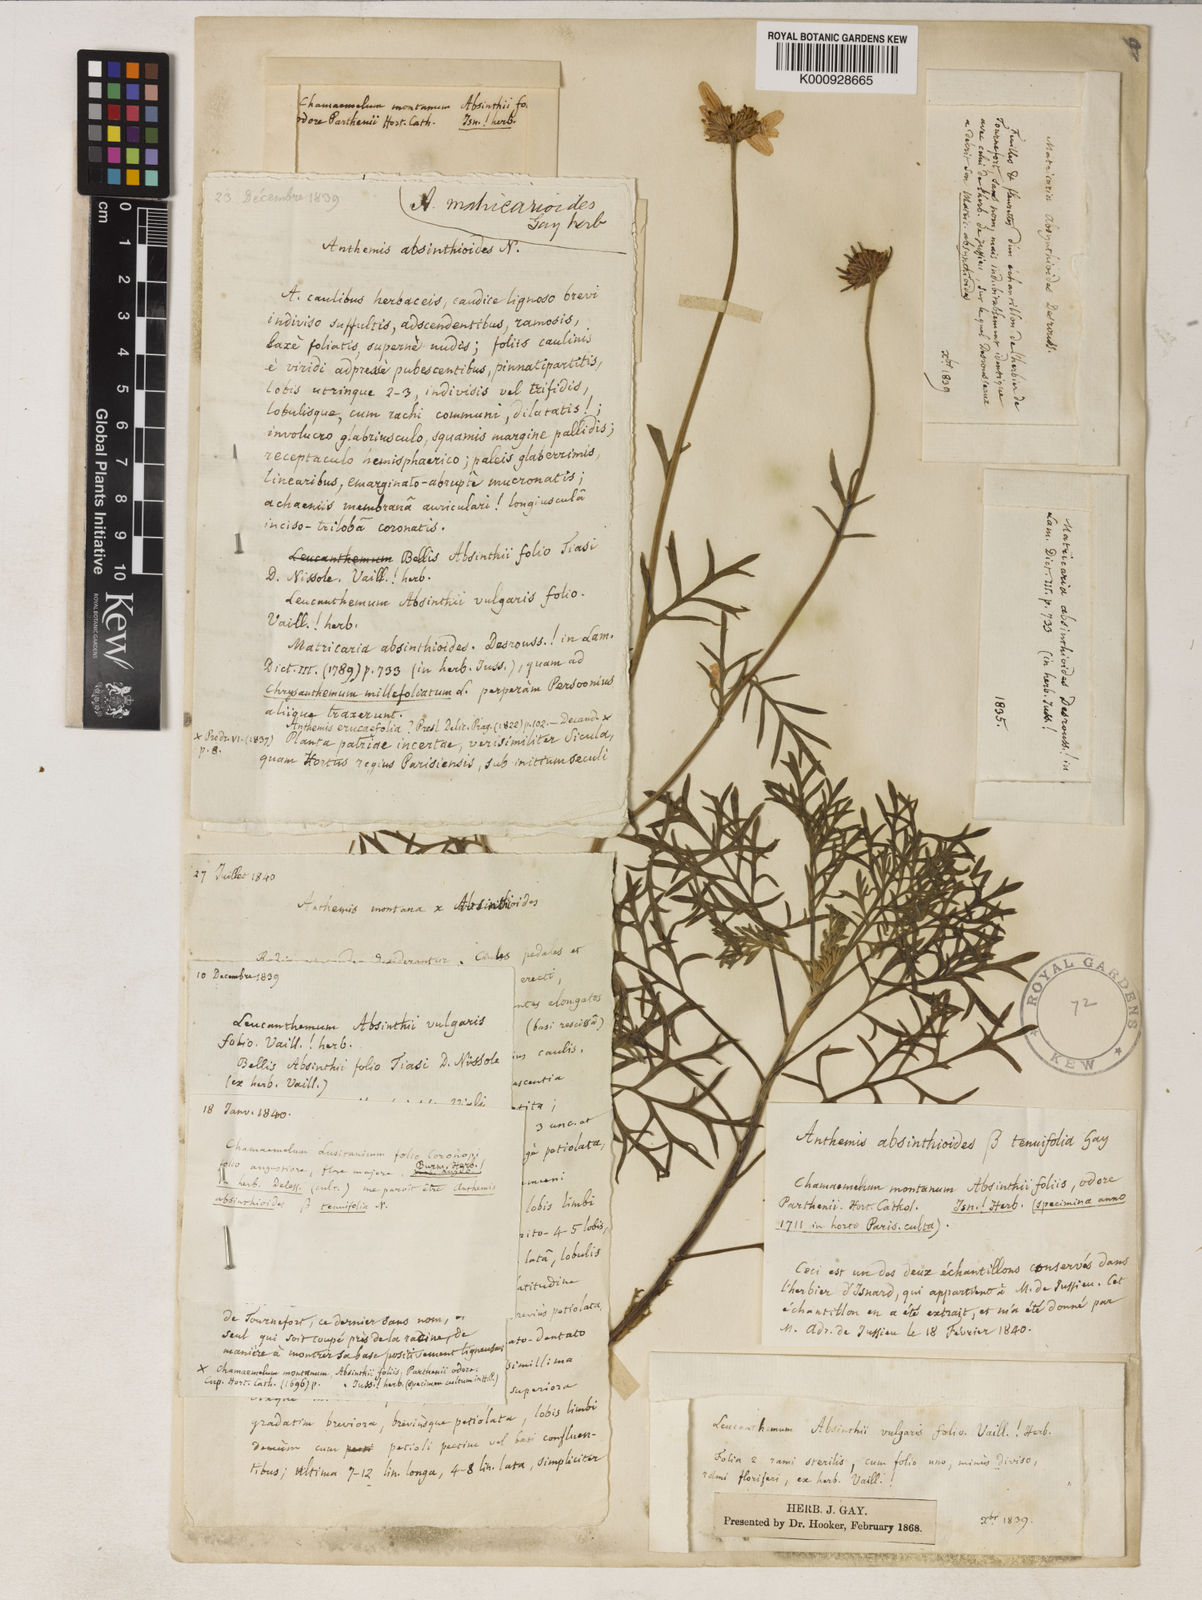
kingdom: Plantae
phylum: Tracheophyta
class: Magnoliopsida
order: Asterales
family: Asteraceae
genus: Anthemis
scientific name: Anthemis cupaniana
